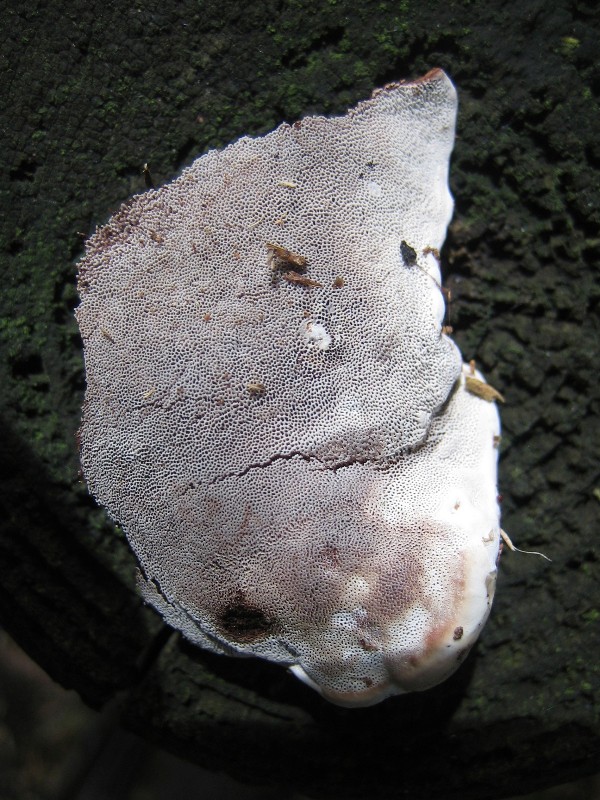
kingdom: Fungi
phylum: Basidiomycota
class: Agaricomycetes
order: Polyporales
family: Polyporaceae
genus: Ganoderma
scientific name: Ganoderma applanatum
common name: flad lakporesvamp
